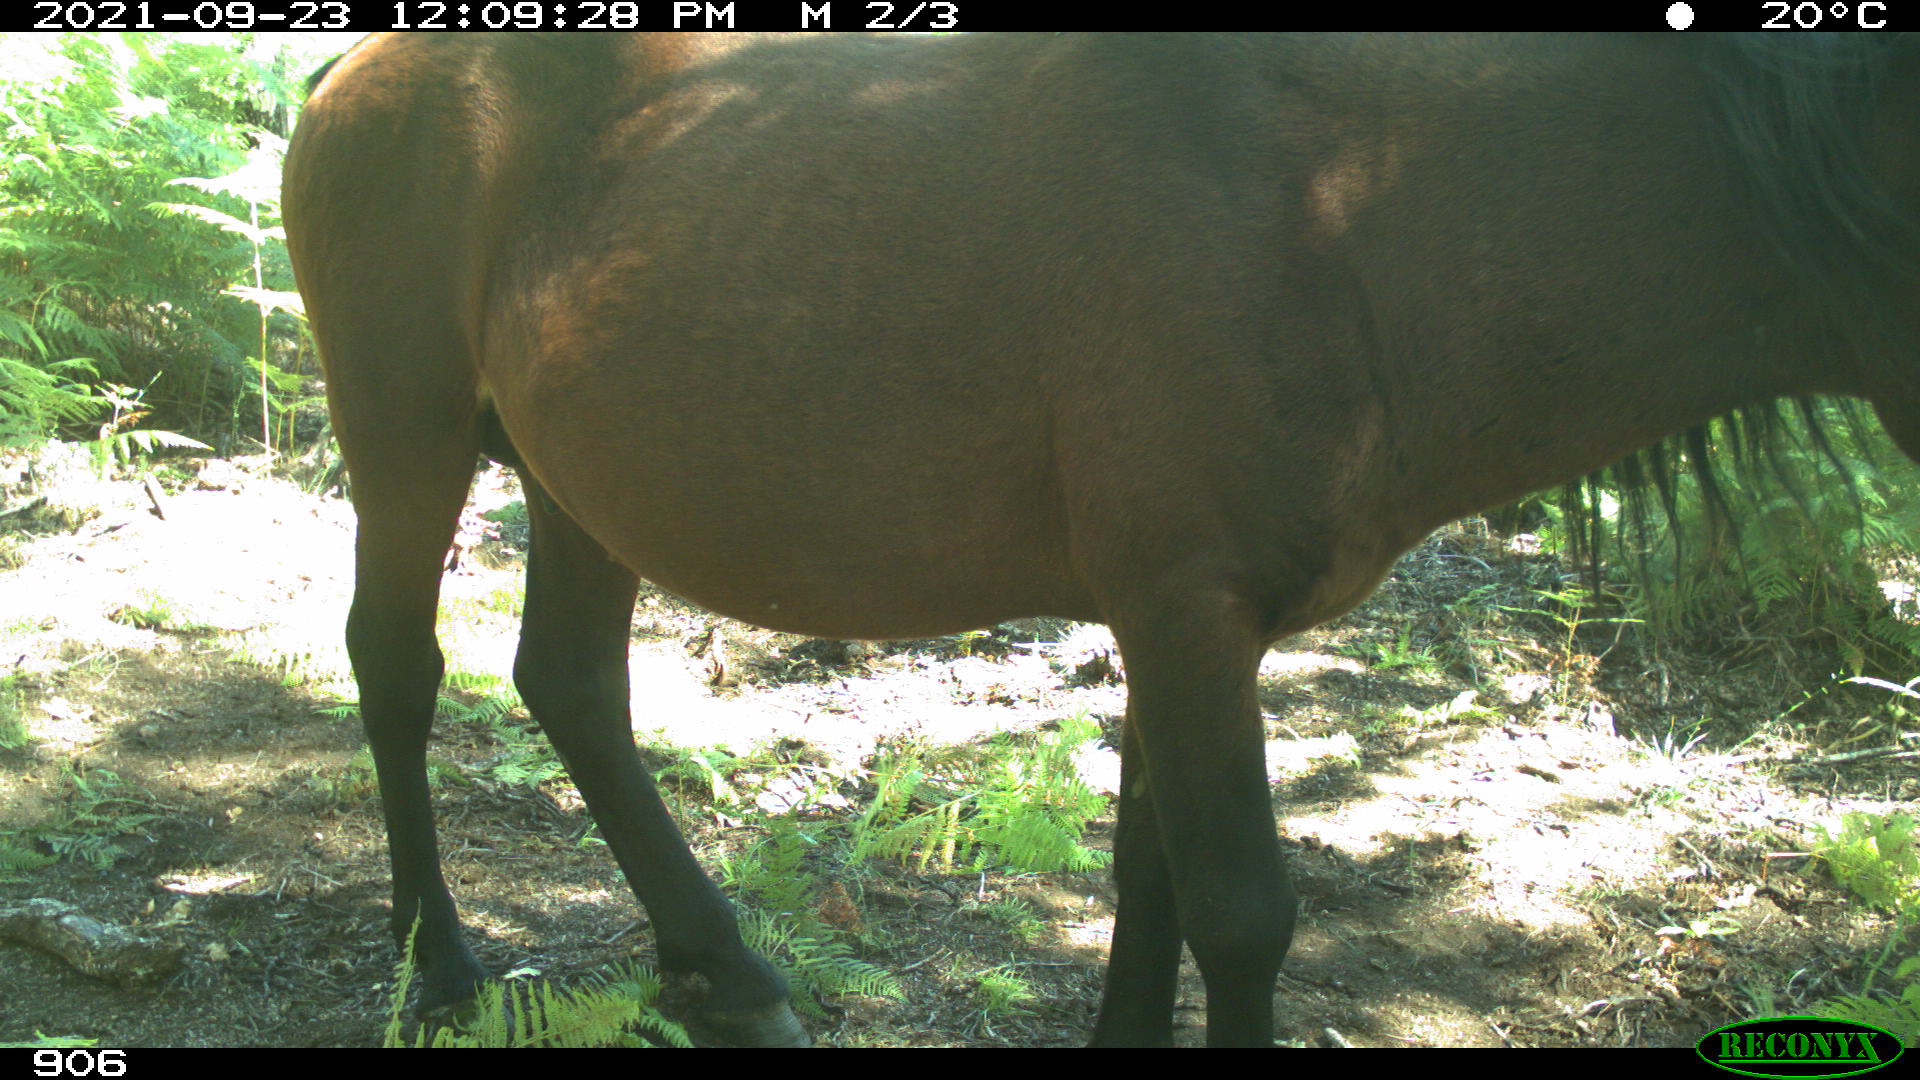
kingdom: Animalia
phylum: Chordata
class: Mammalia
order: Perissodactyla
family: Equidae
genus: Equus
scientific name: Equus caballus
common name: Horse
